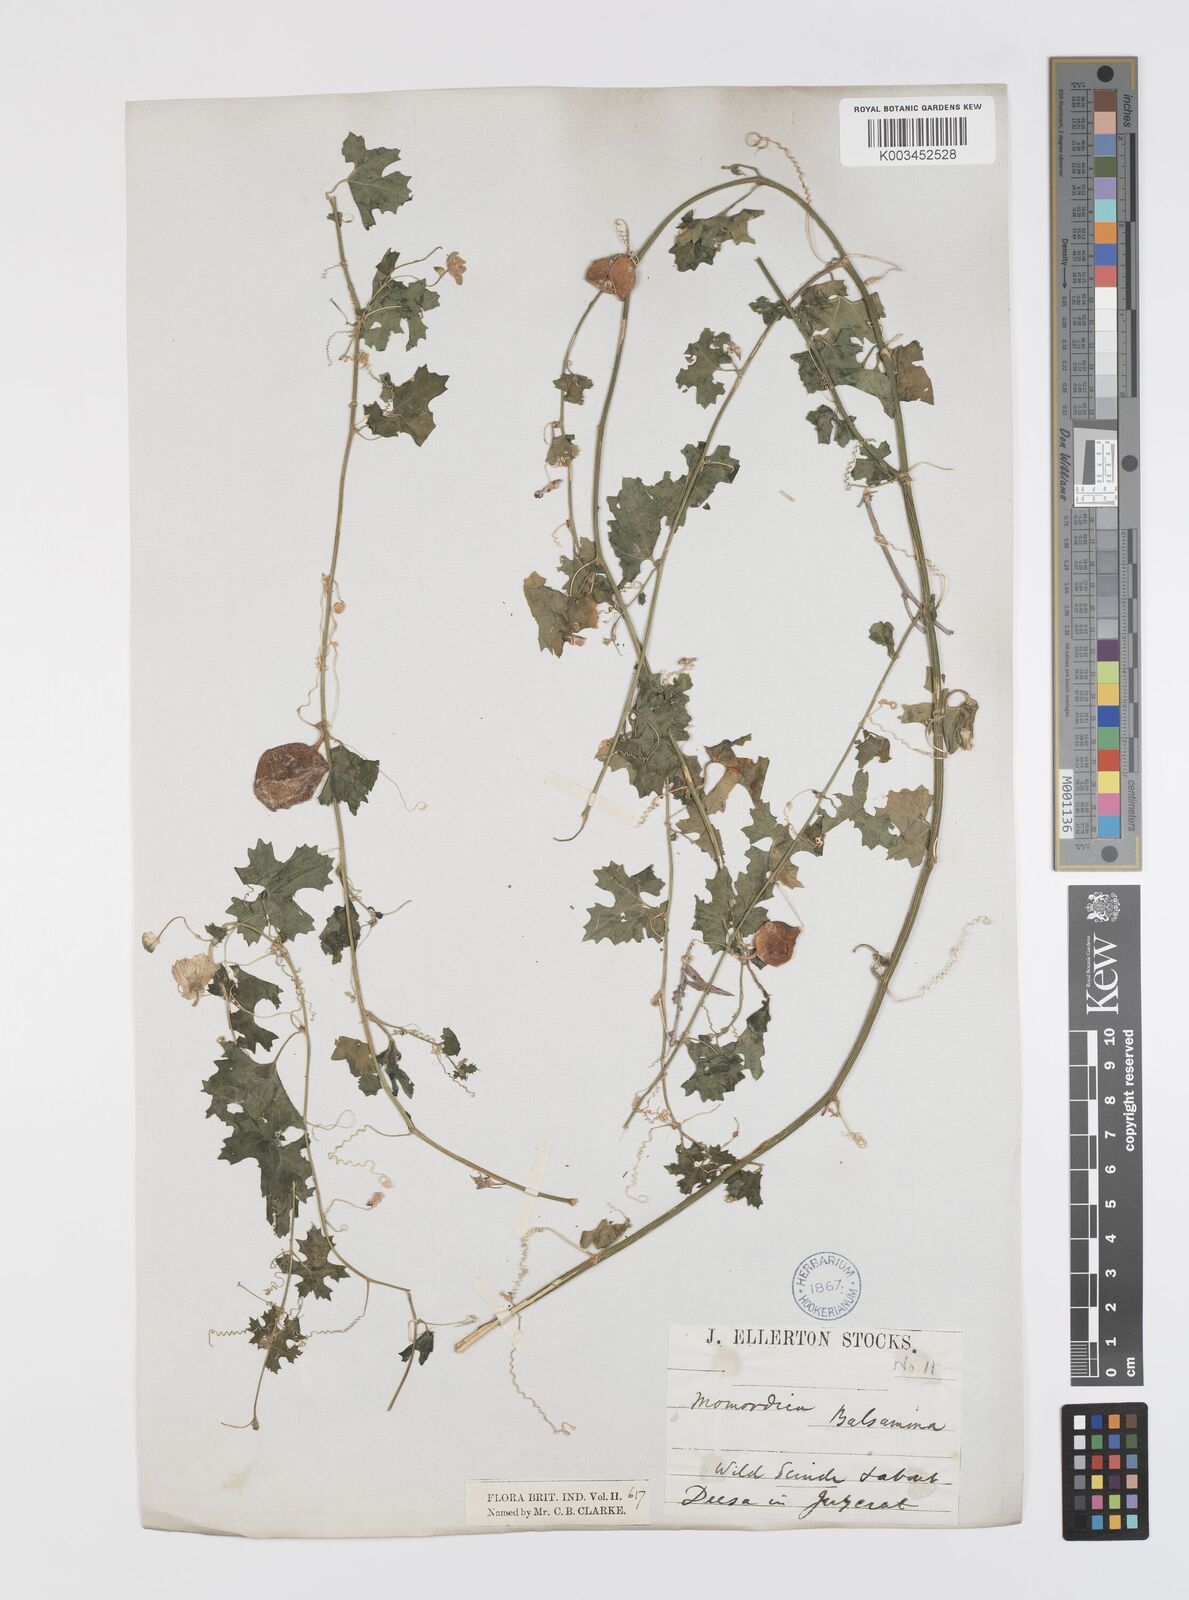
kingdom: Plantae
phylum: Tracheophyta
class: Magnoliopsida
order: Cucurbitales
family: Cucurbitaceae
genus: Momordica
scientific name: Momordica balsamina
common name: Southern balsampear
